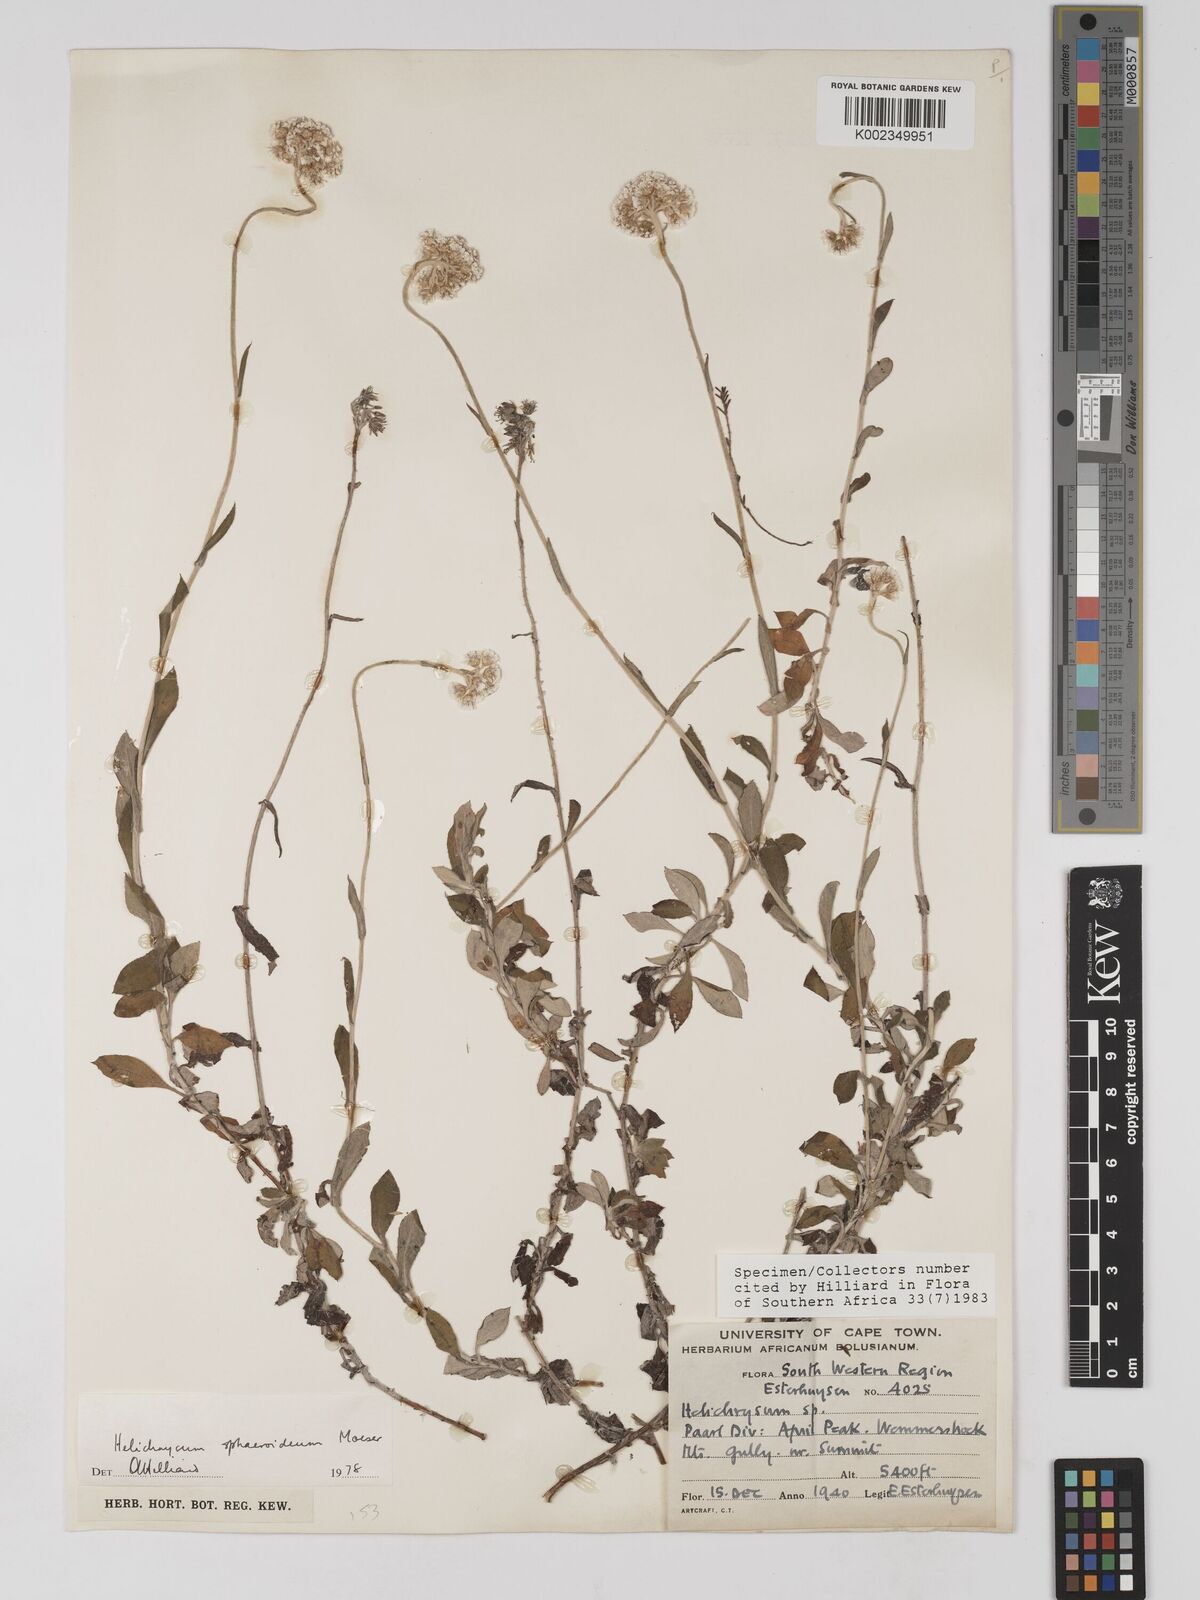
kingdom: Plantae
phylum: Tracheophyta
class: Magnoliopsida
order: Asterales
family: Asteraceae
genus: Helichrysum
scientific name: Helichrysum sphaeroideum
